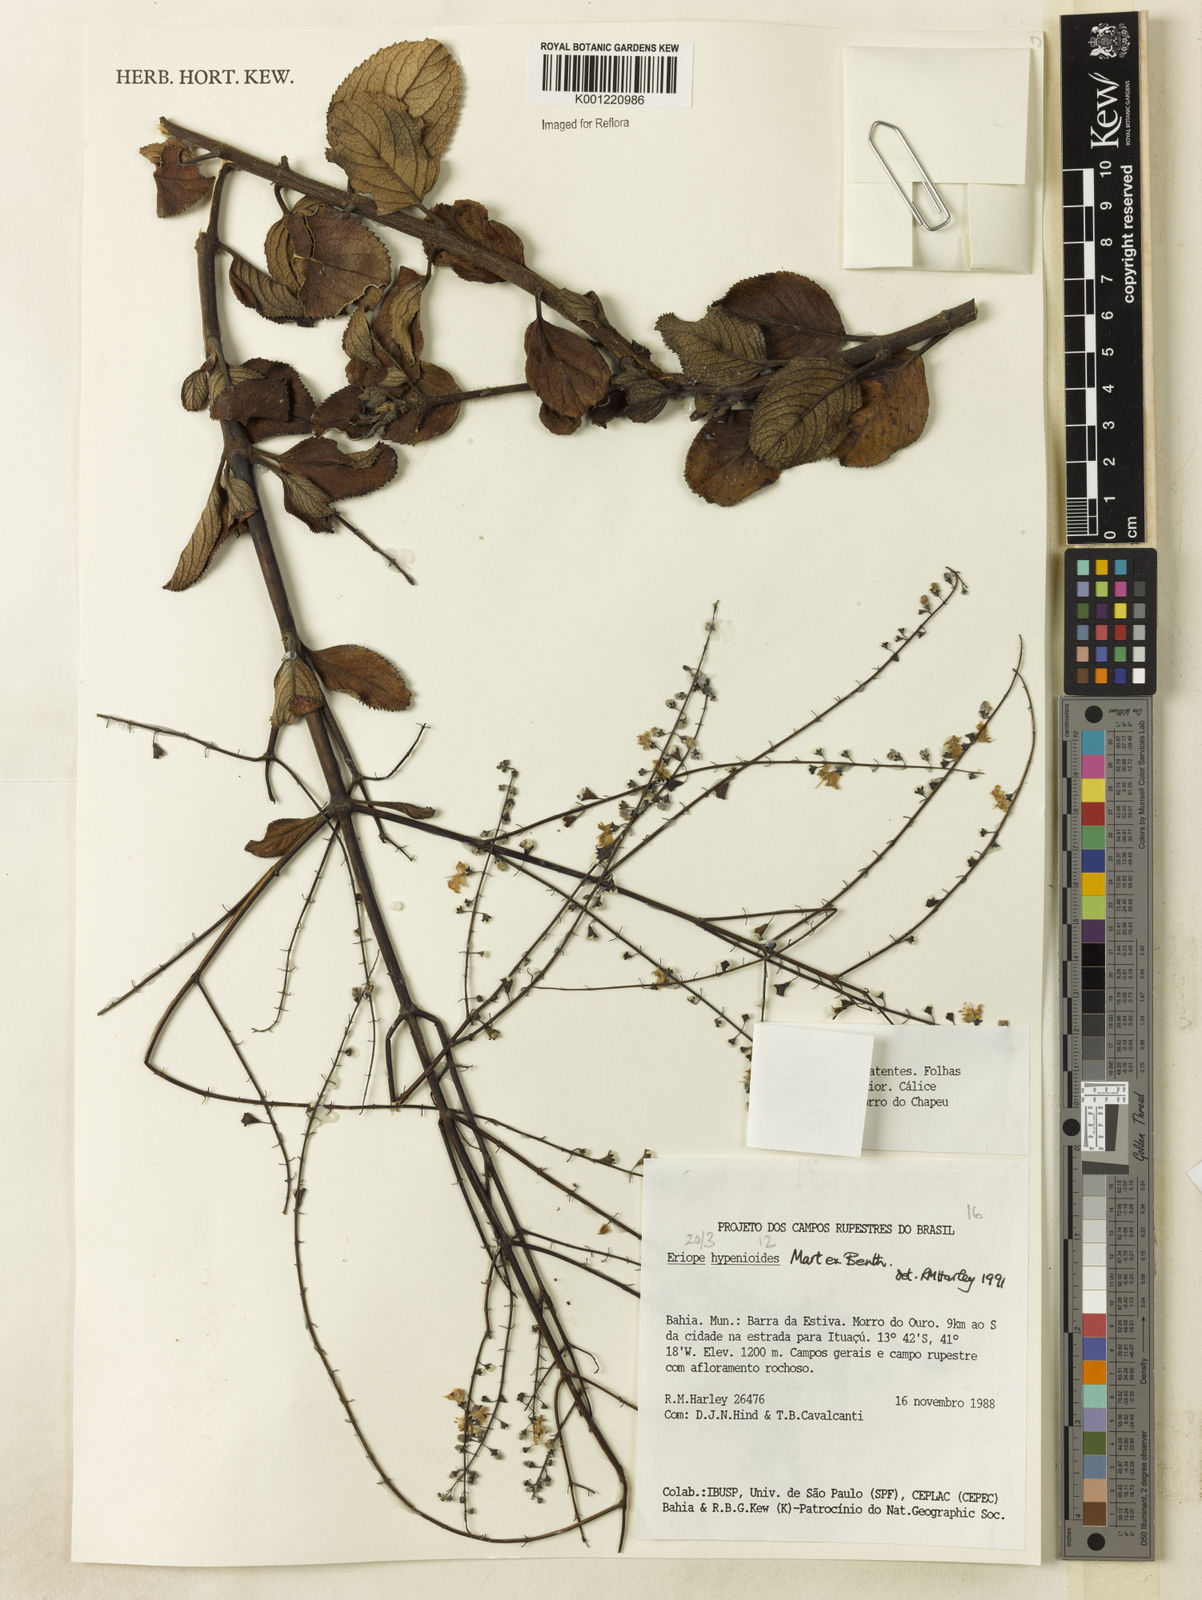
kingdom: Plantae
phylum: Tracheophyta
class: Magnoliopsida
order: Lamiales
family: Lamiaceae
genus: Eriope
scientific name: Eriope hypenioides
